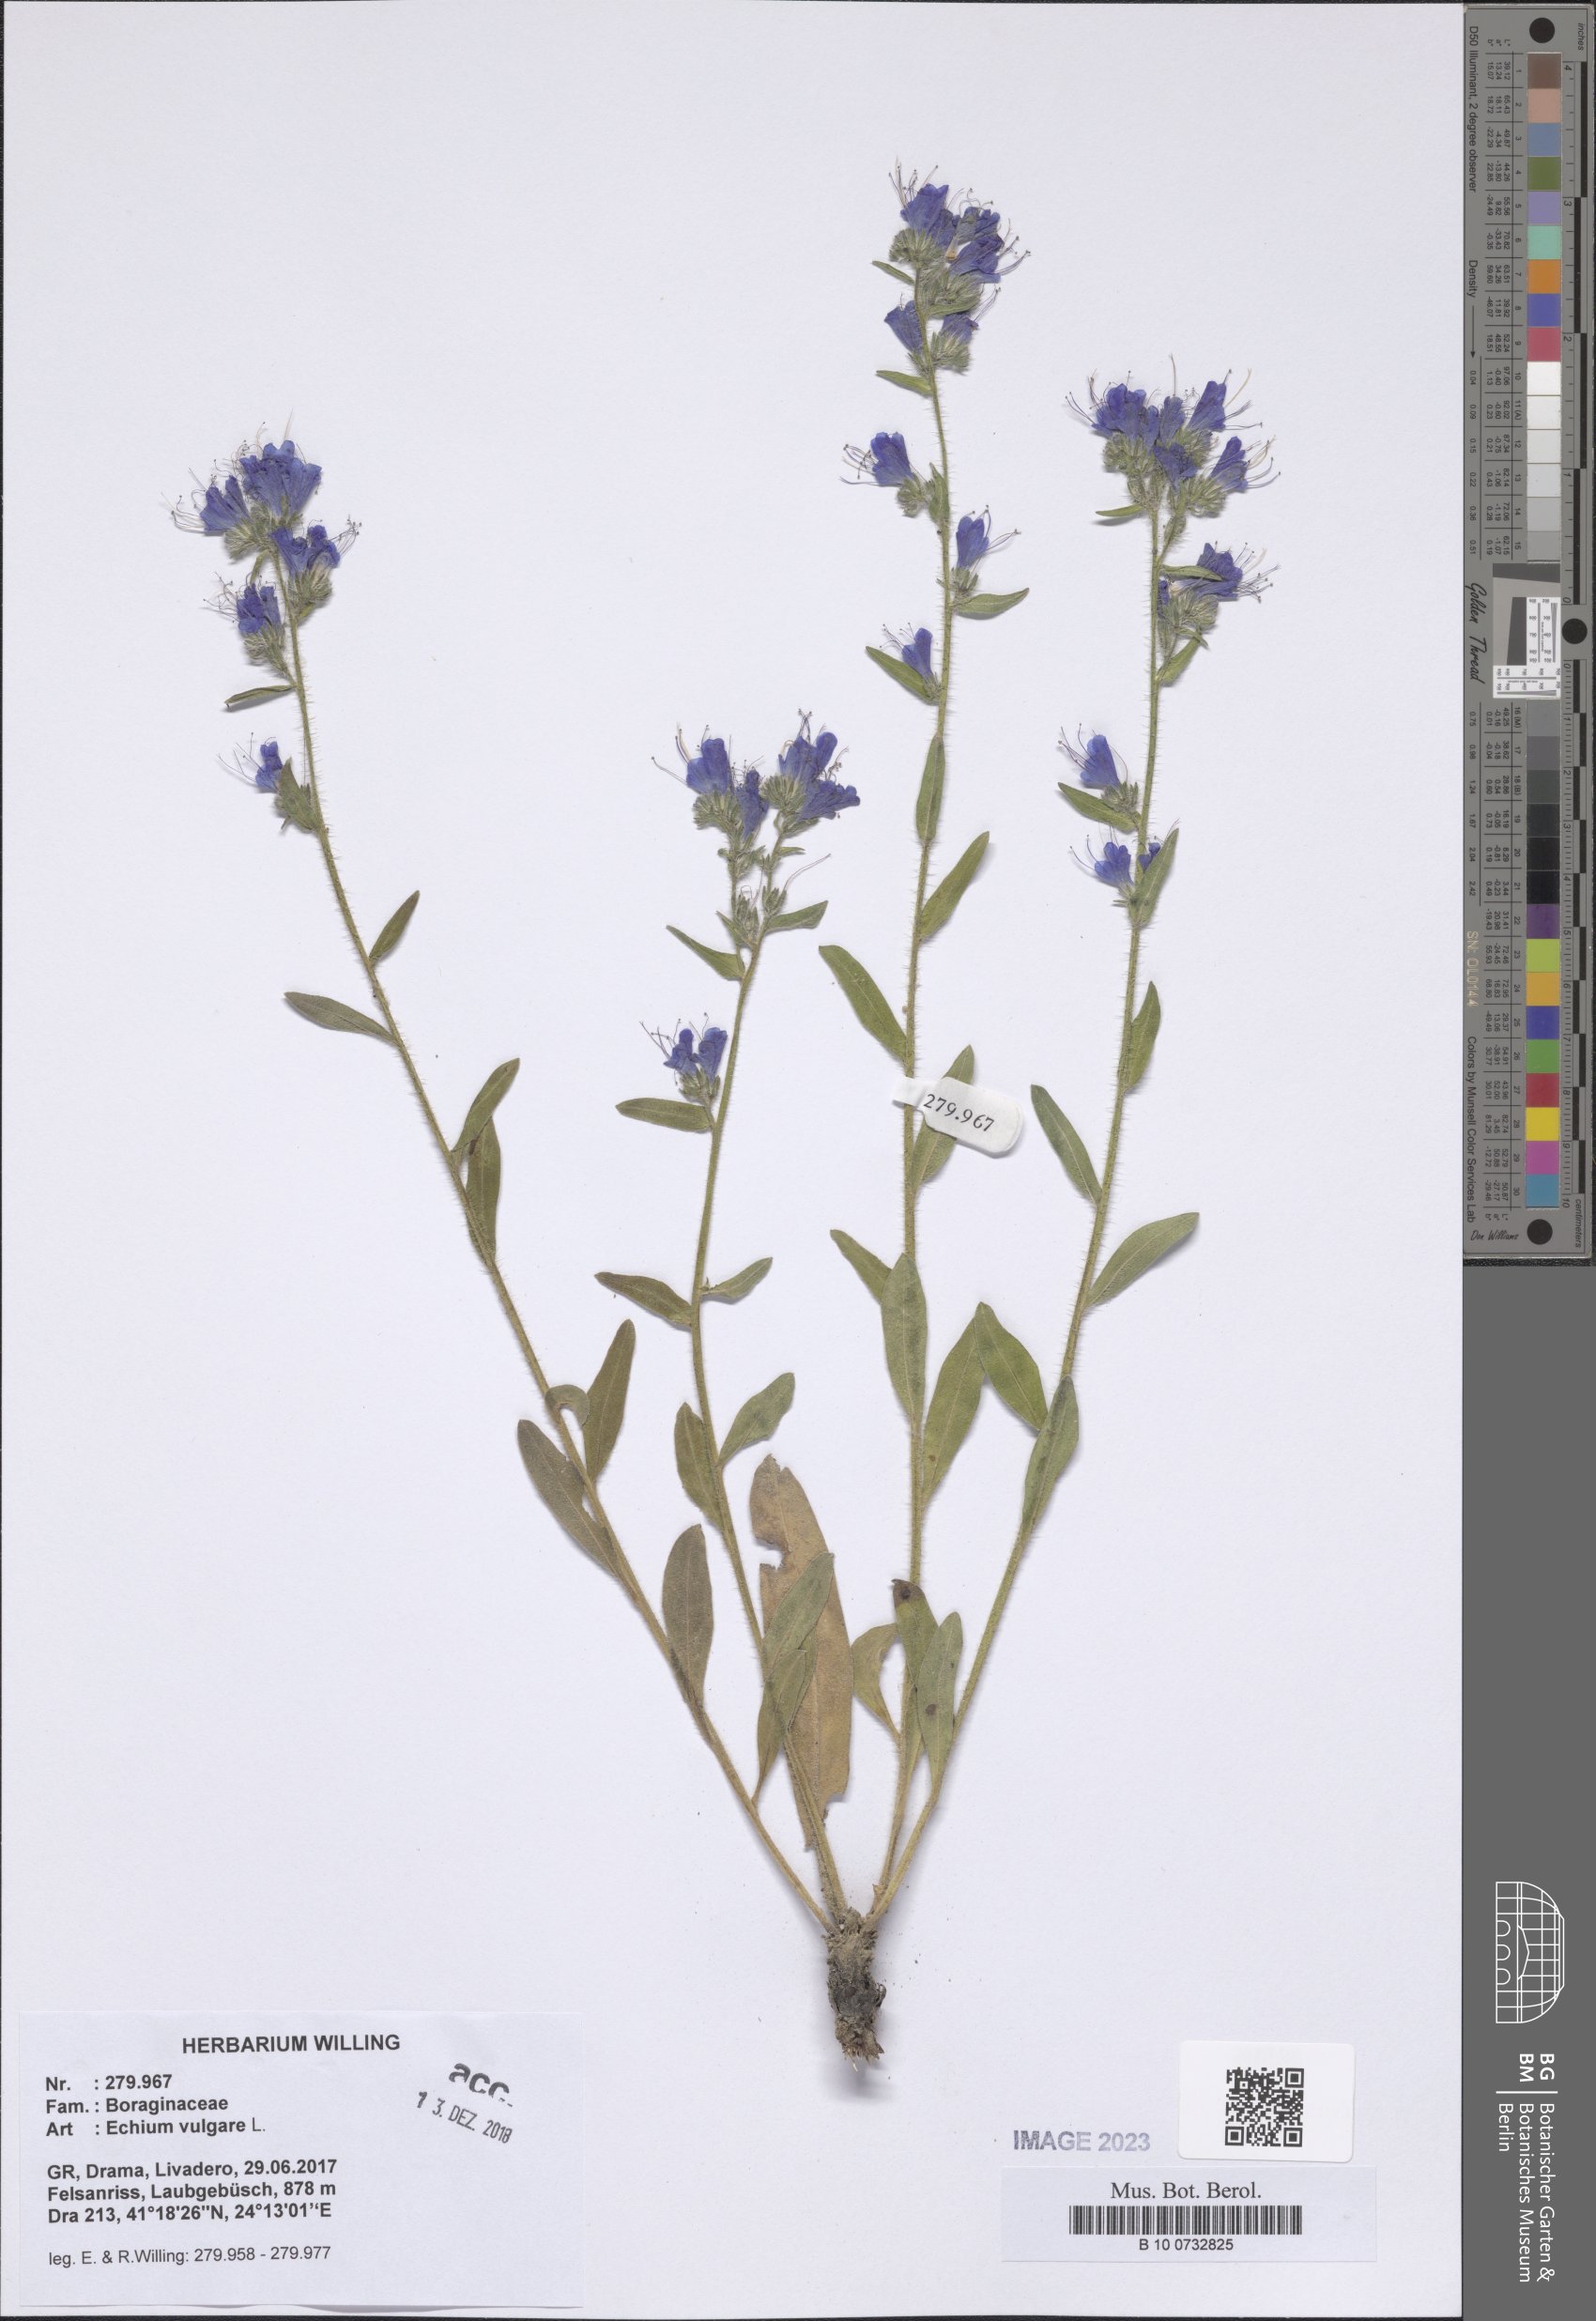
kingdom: Plantae
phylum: Tracheophyta
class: Magnoliopsida
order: Boraginales
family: Boraginaceae
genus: Echium
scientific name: Echium vulgare
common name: Common viper's bugloss
